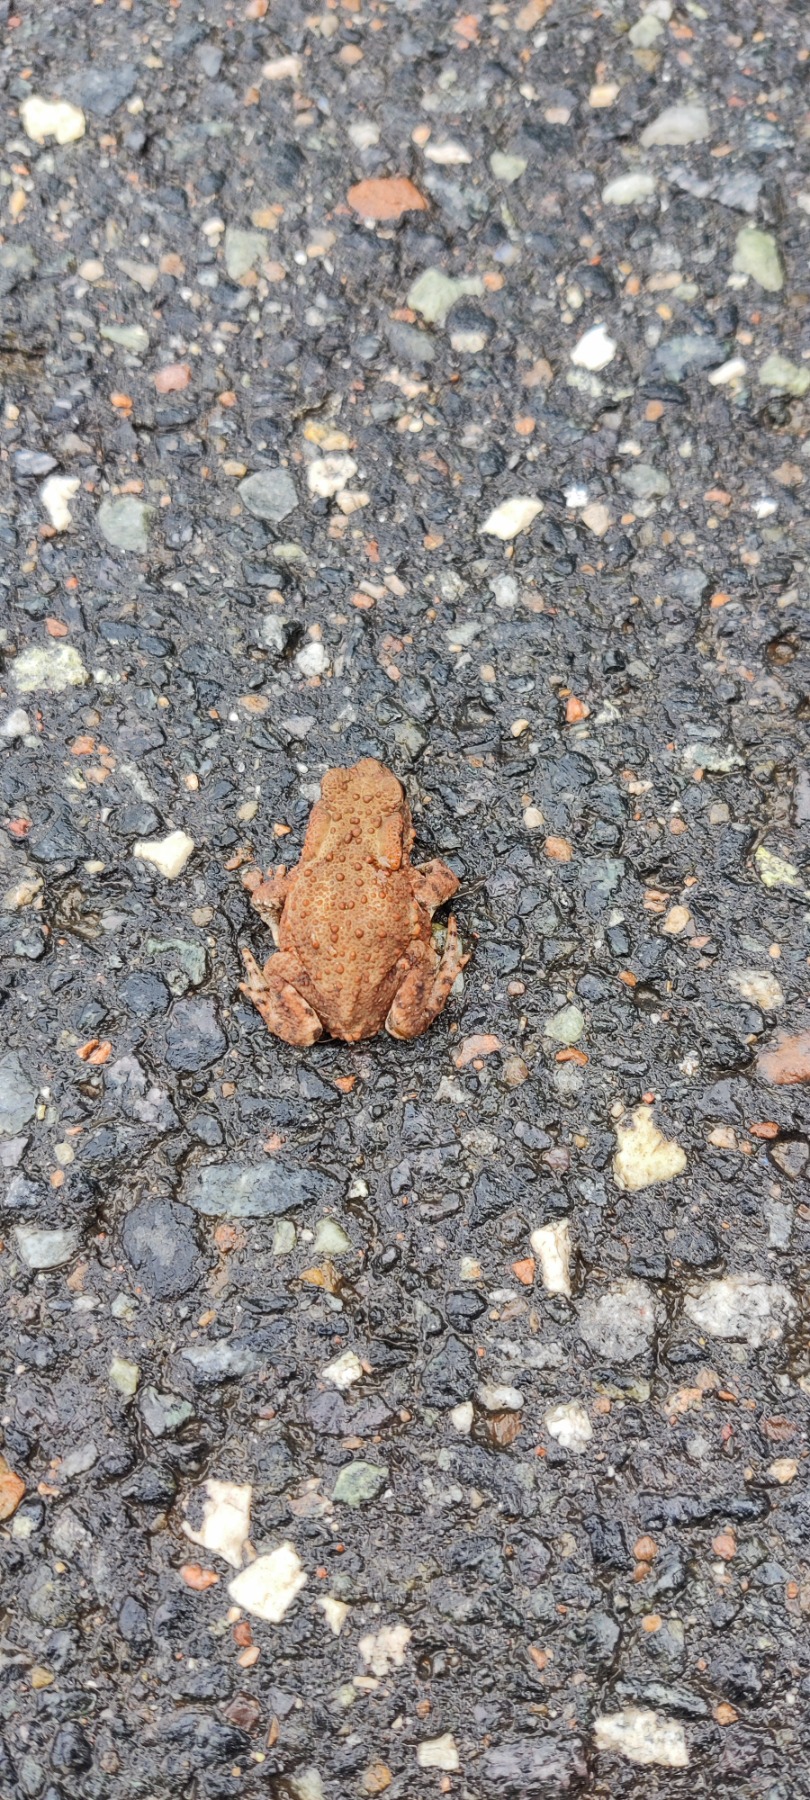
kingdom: Animalia
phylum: Chordata
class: Amphibia
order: Anura
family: Bufonidae
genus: Bufo
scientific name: Bufo bufo
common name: Skrubtudse
